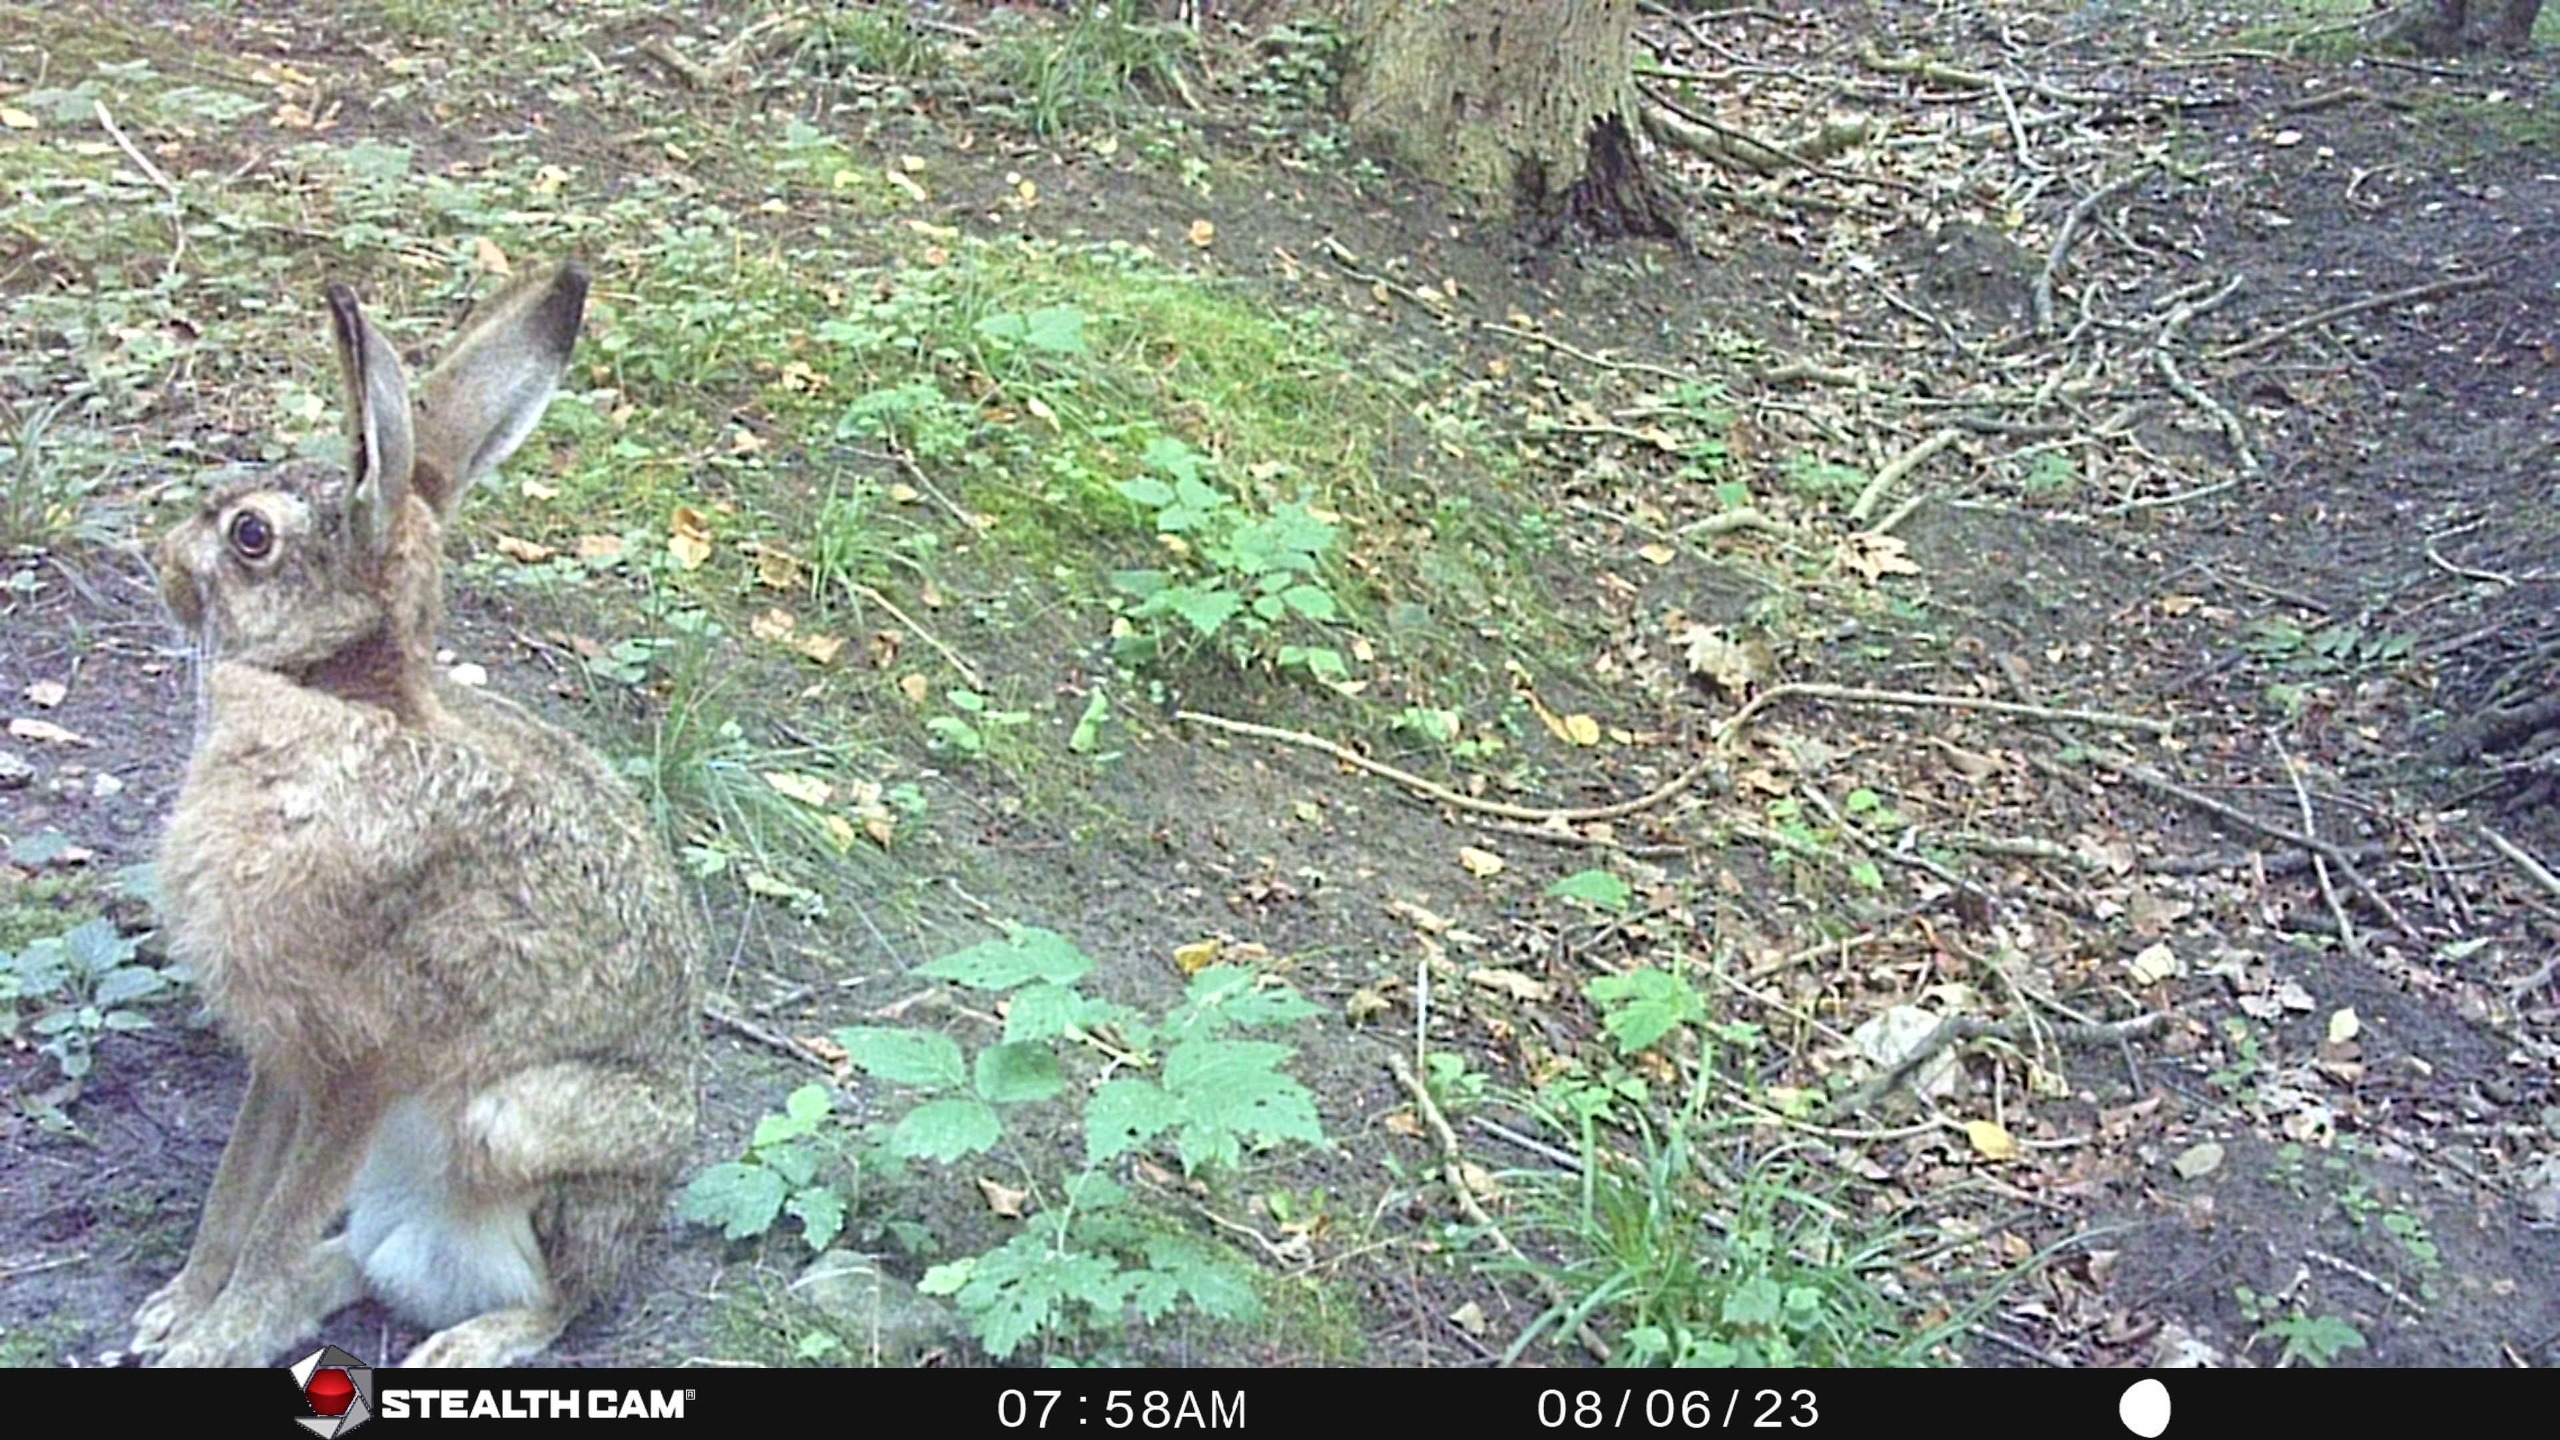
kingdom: Animalia
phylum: Chordata
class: Mammalia
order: Lagomorpha
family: Leporidae
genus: Lepus
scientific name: Lepus europaeus
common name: Hare
